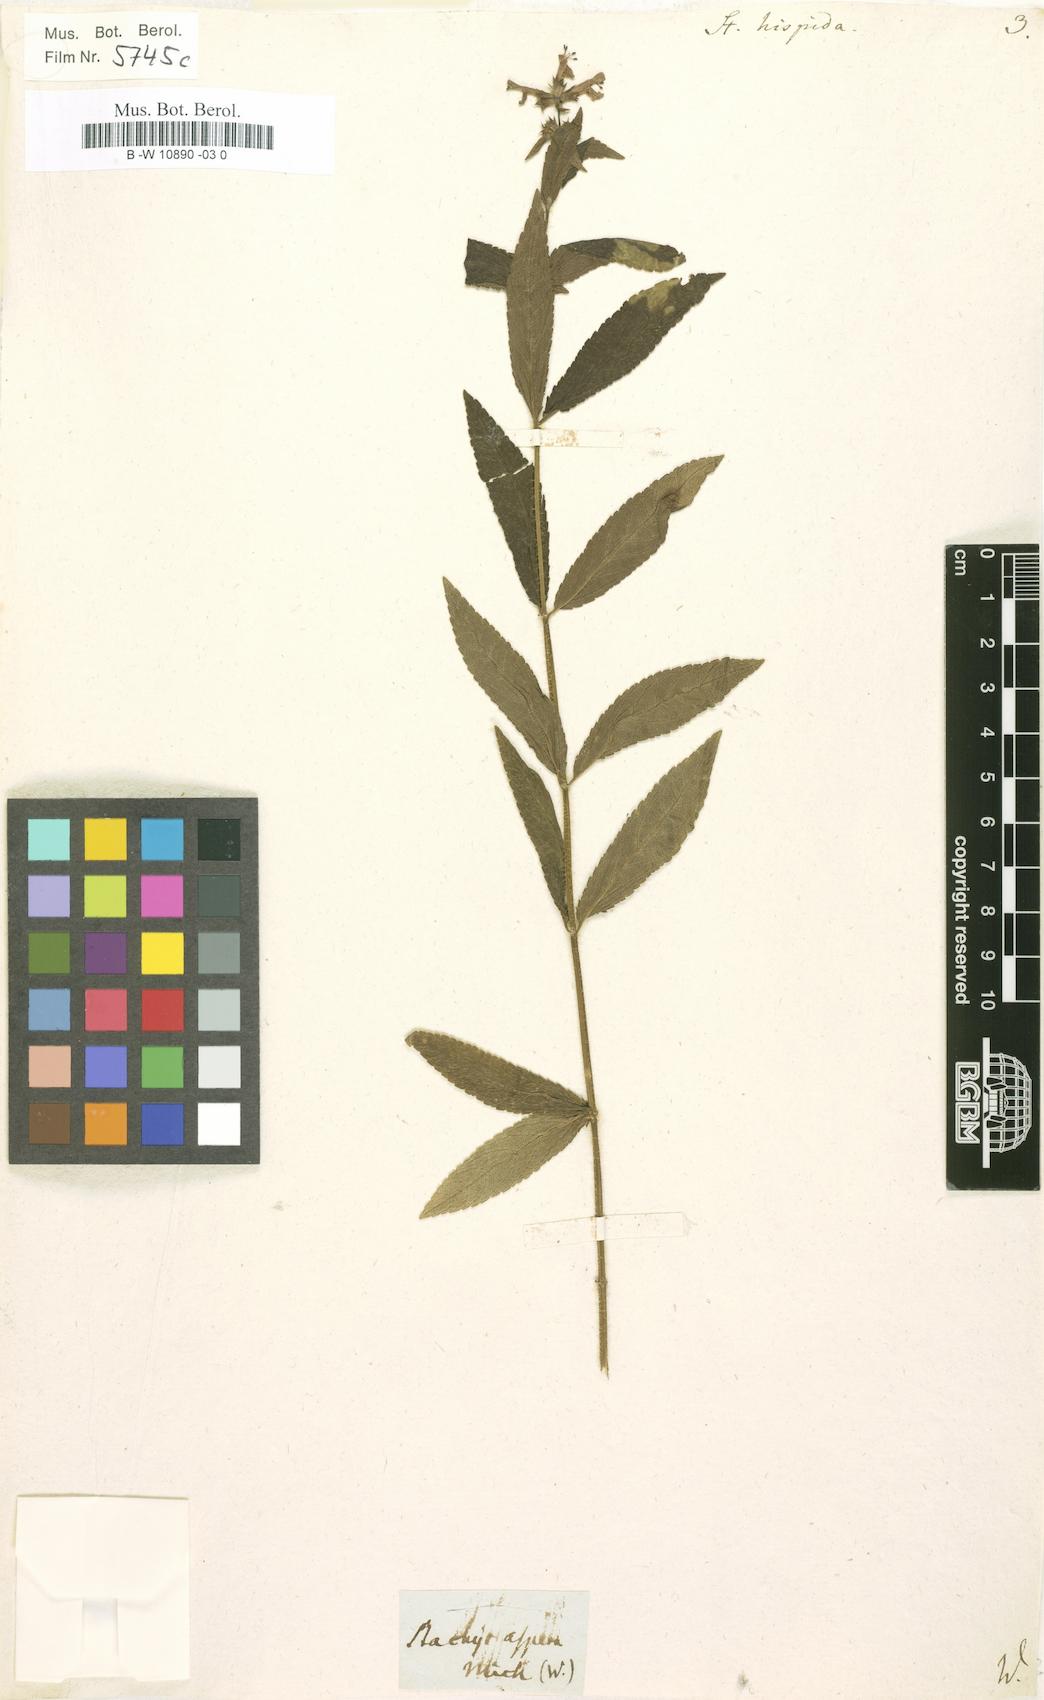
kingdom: Plantae
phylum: Tracheophyta
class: Magnoliopsida
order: Lamiales
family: Lamiaceae
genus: Stachys
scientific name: Stachys hispida
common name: Hispid hedge-nettle
